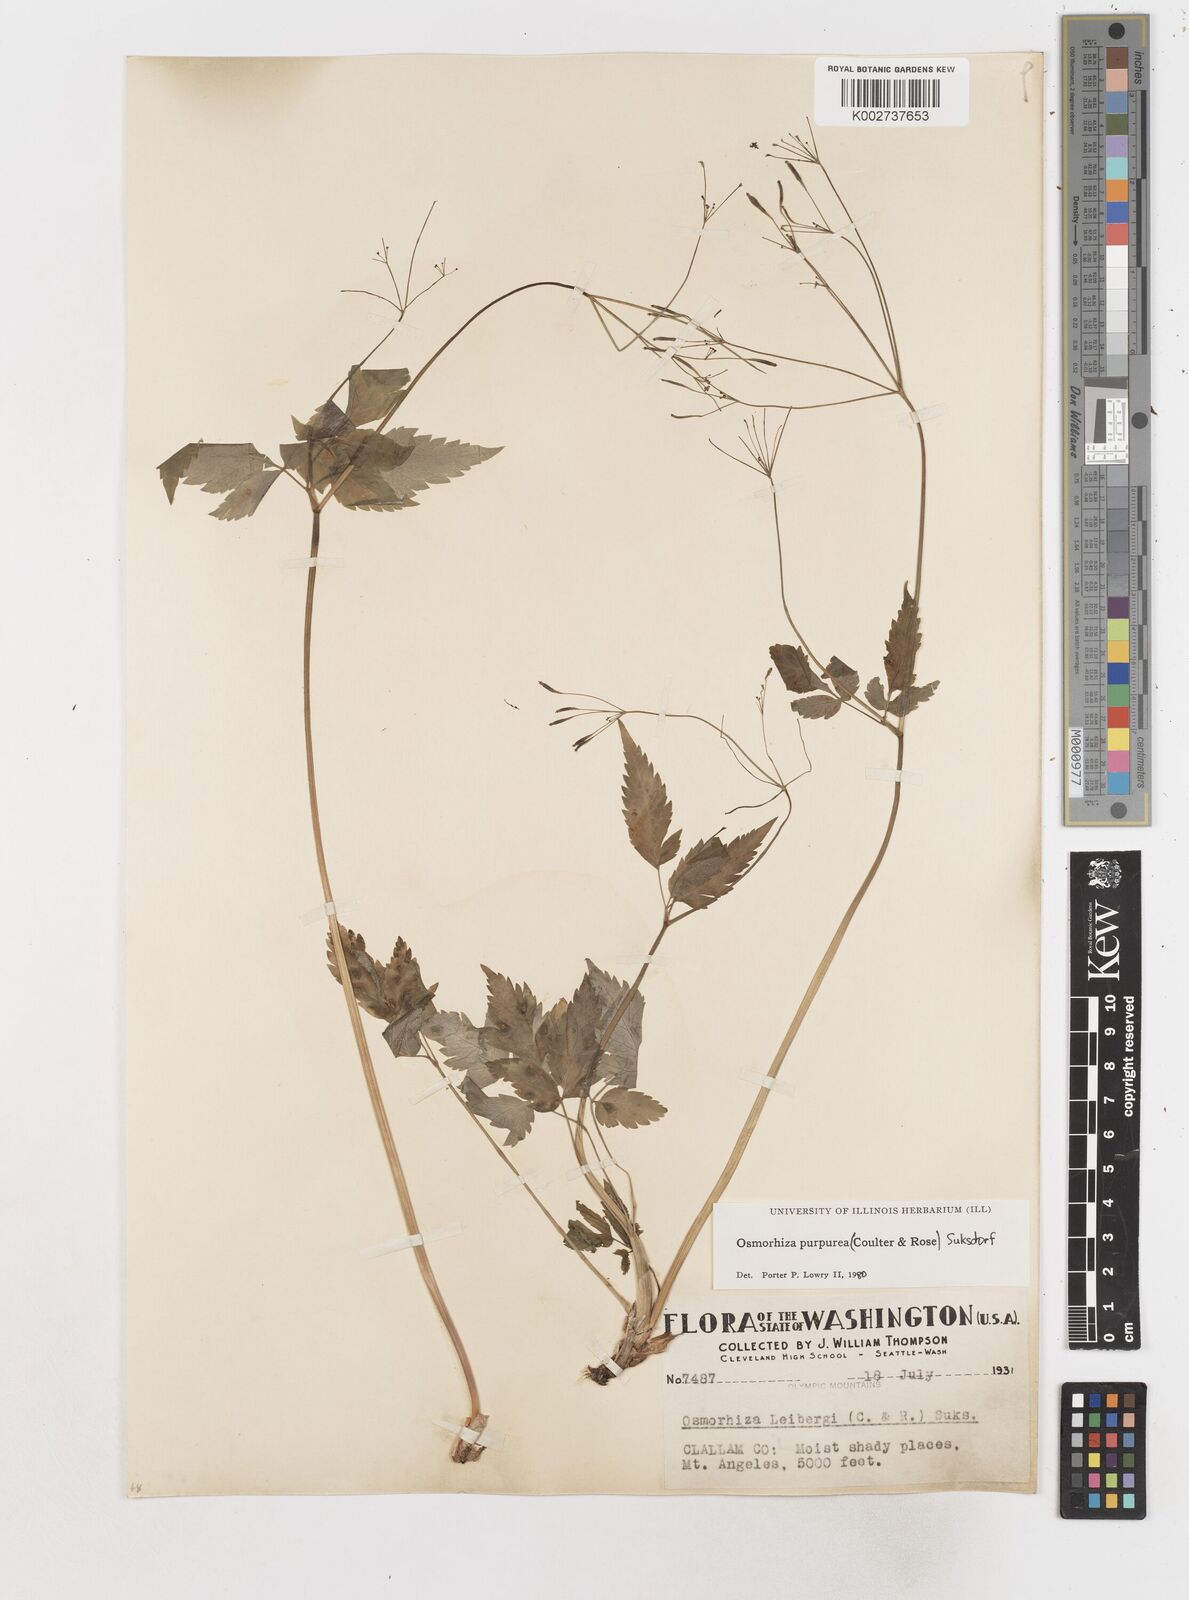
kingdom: Plantae
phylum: Tracheophyta
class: Magnoliopsida
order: Apiales
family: Apiaceae
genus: Osmorhiza
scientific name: Osmorhiza purpurea
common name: Purple sweet cicely
